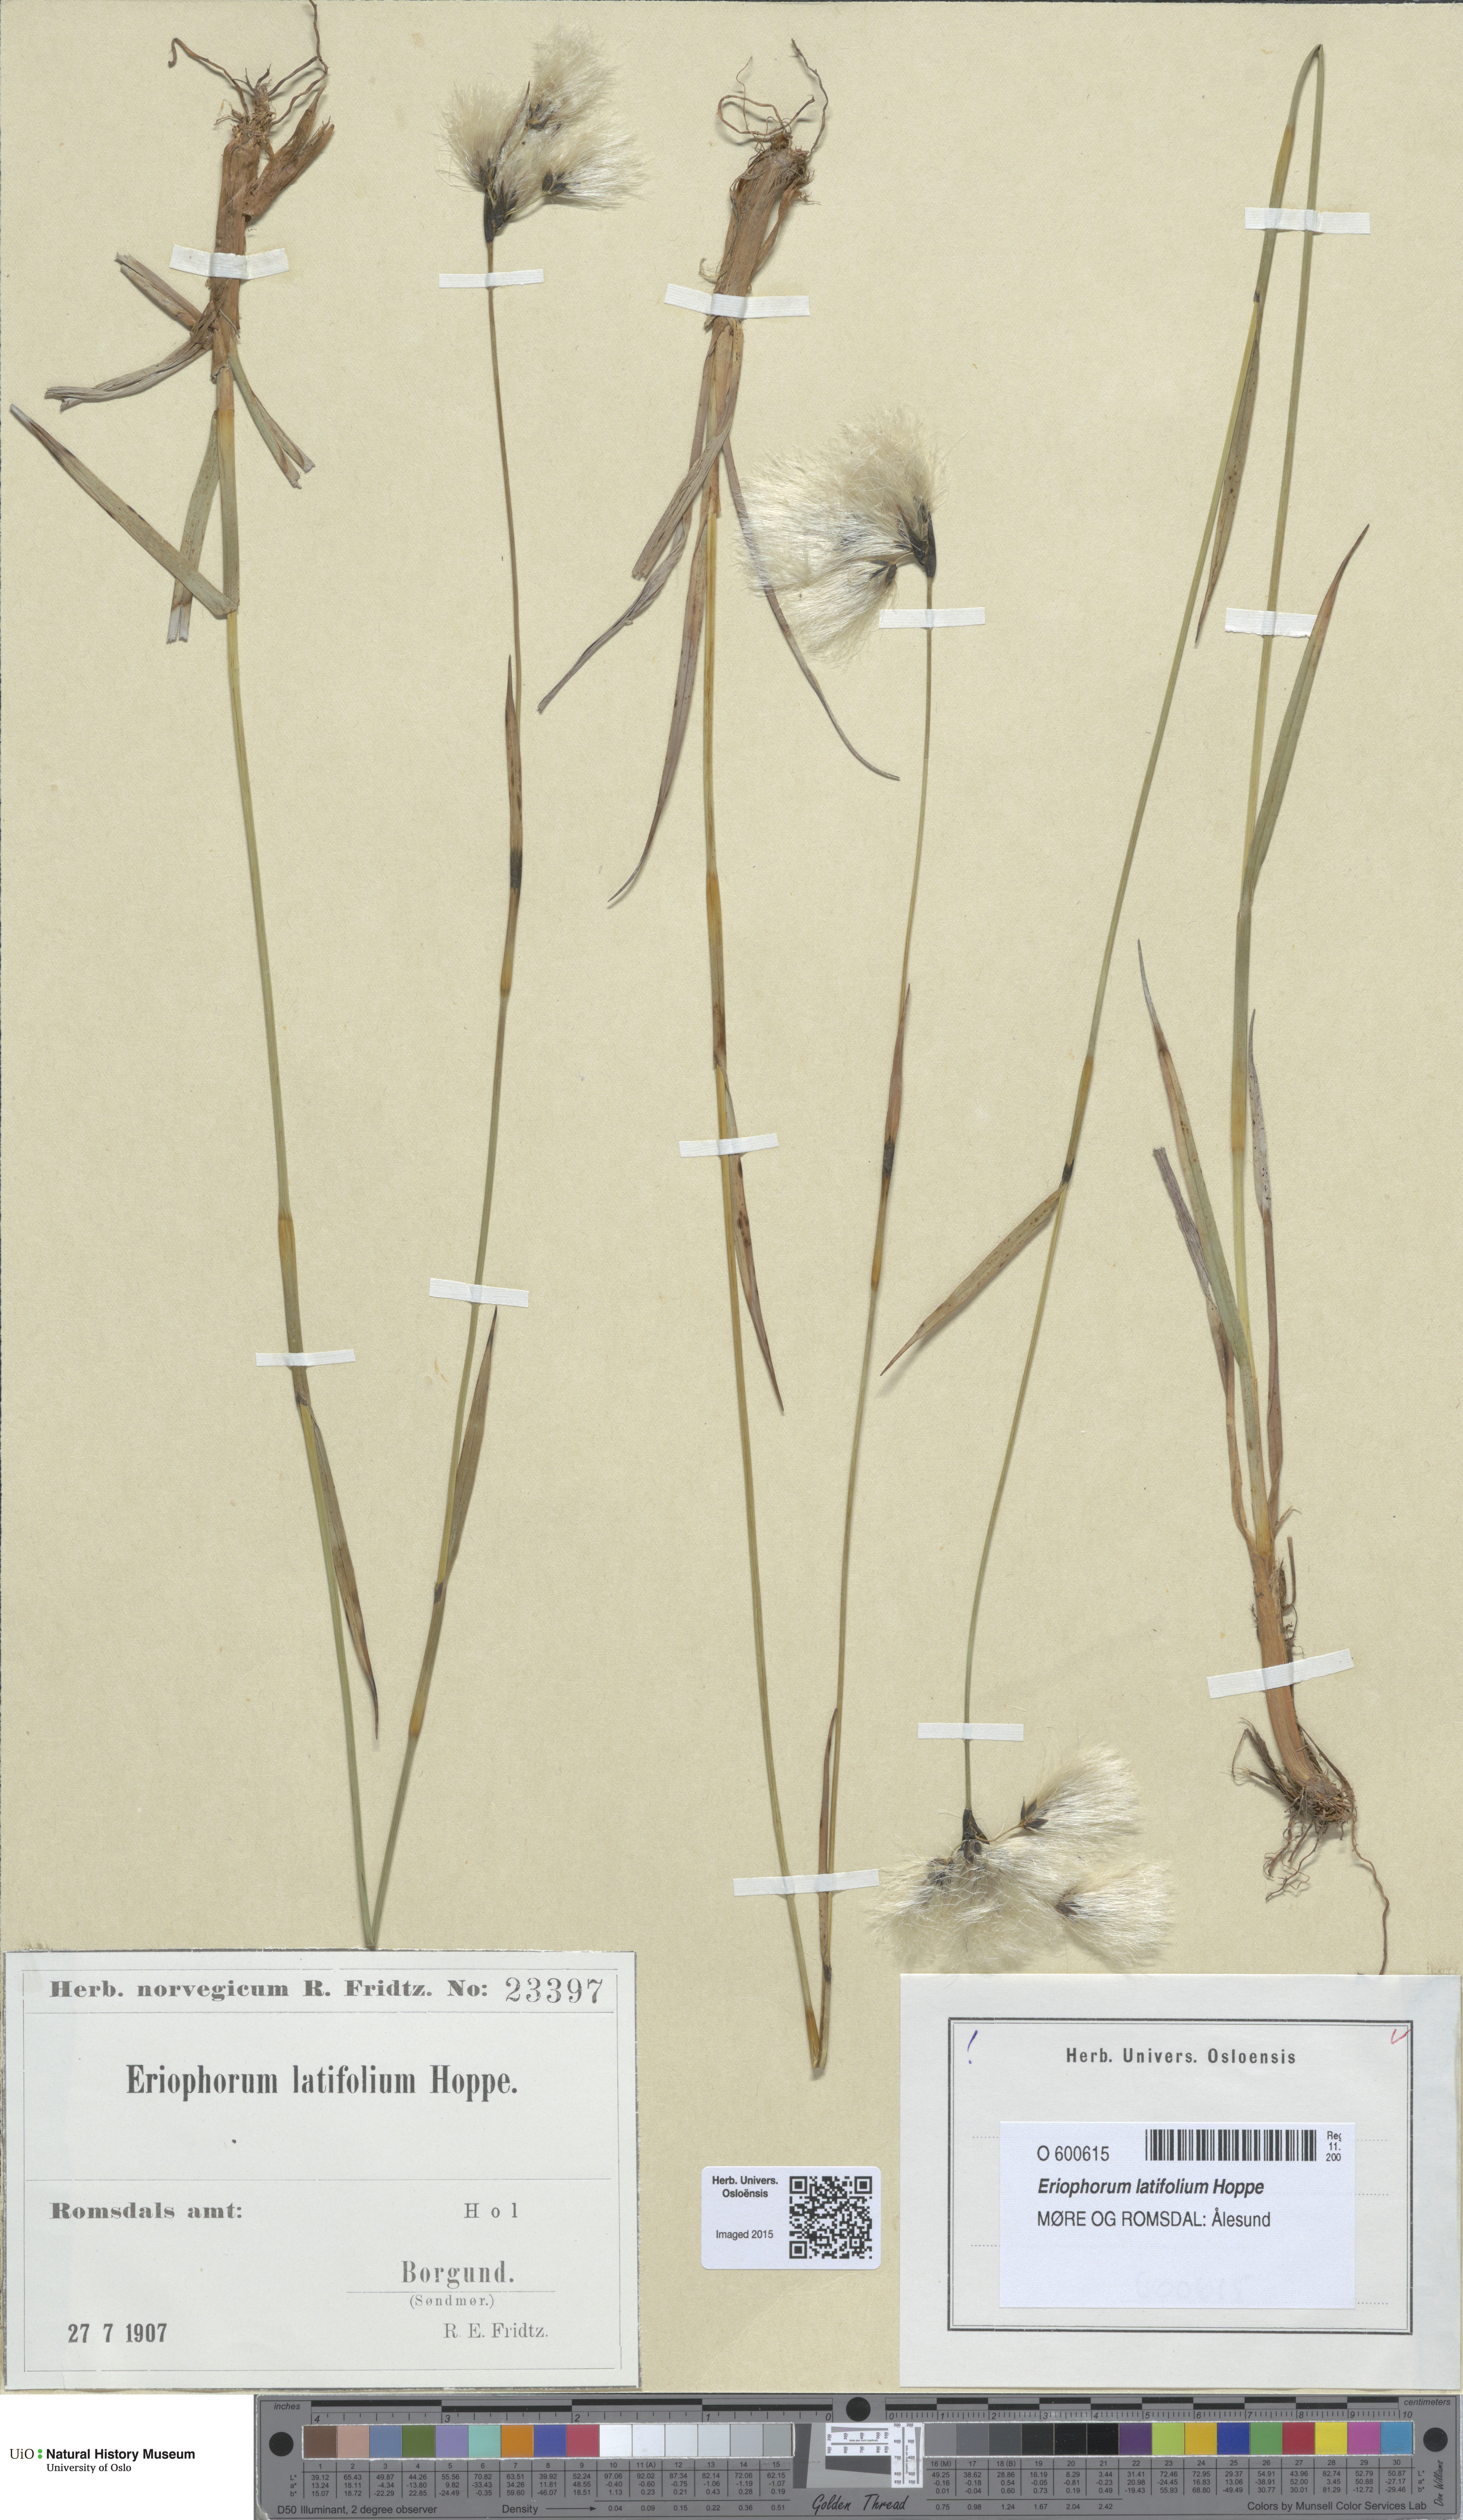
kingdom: Plantae
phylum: Tracheophyta
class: Liliopsida
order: Poales
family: Cyperaceae
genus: Eriophorum
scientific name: Eriophorum latifolium
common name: Broad-leaved cottongrass
